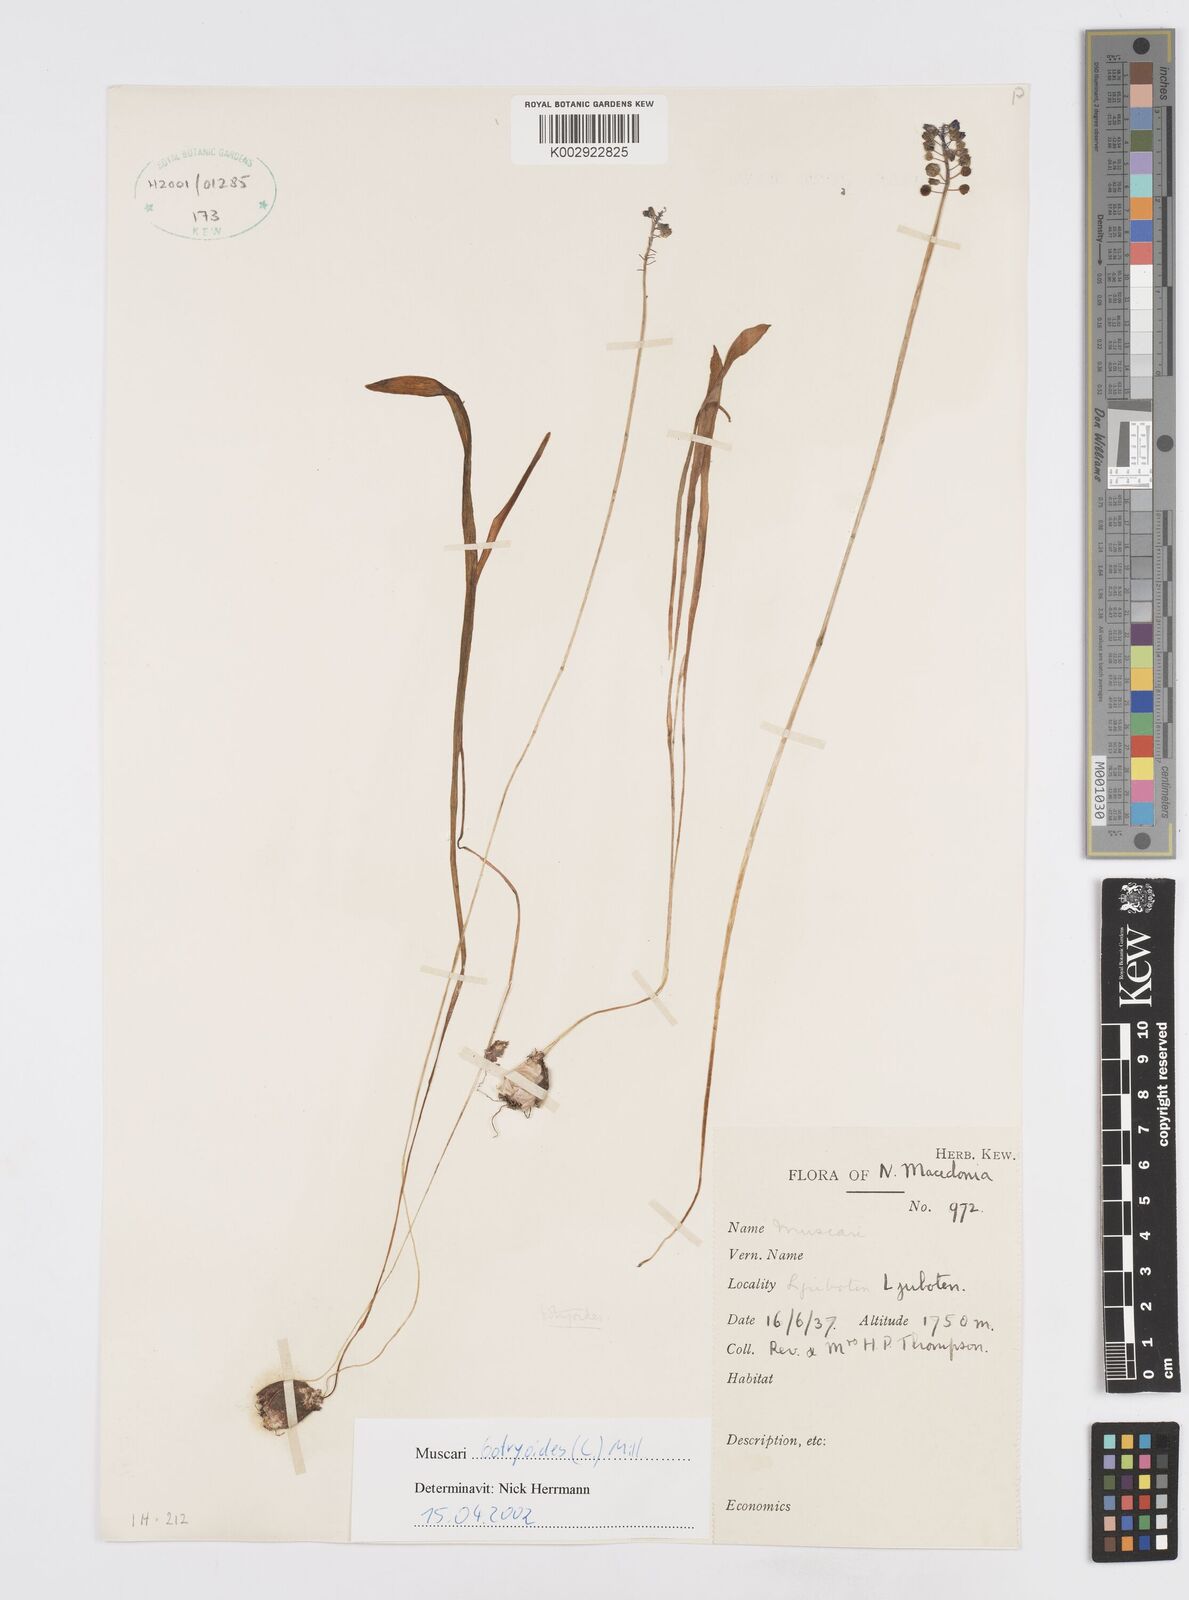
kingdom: Plantae
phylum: Tracheophyta
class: Liliopsida
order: Asparagales
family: Asparagaceae
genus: Muscari
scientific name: Muscari botryoides
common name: Compact grape-hyacinth
